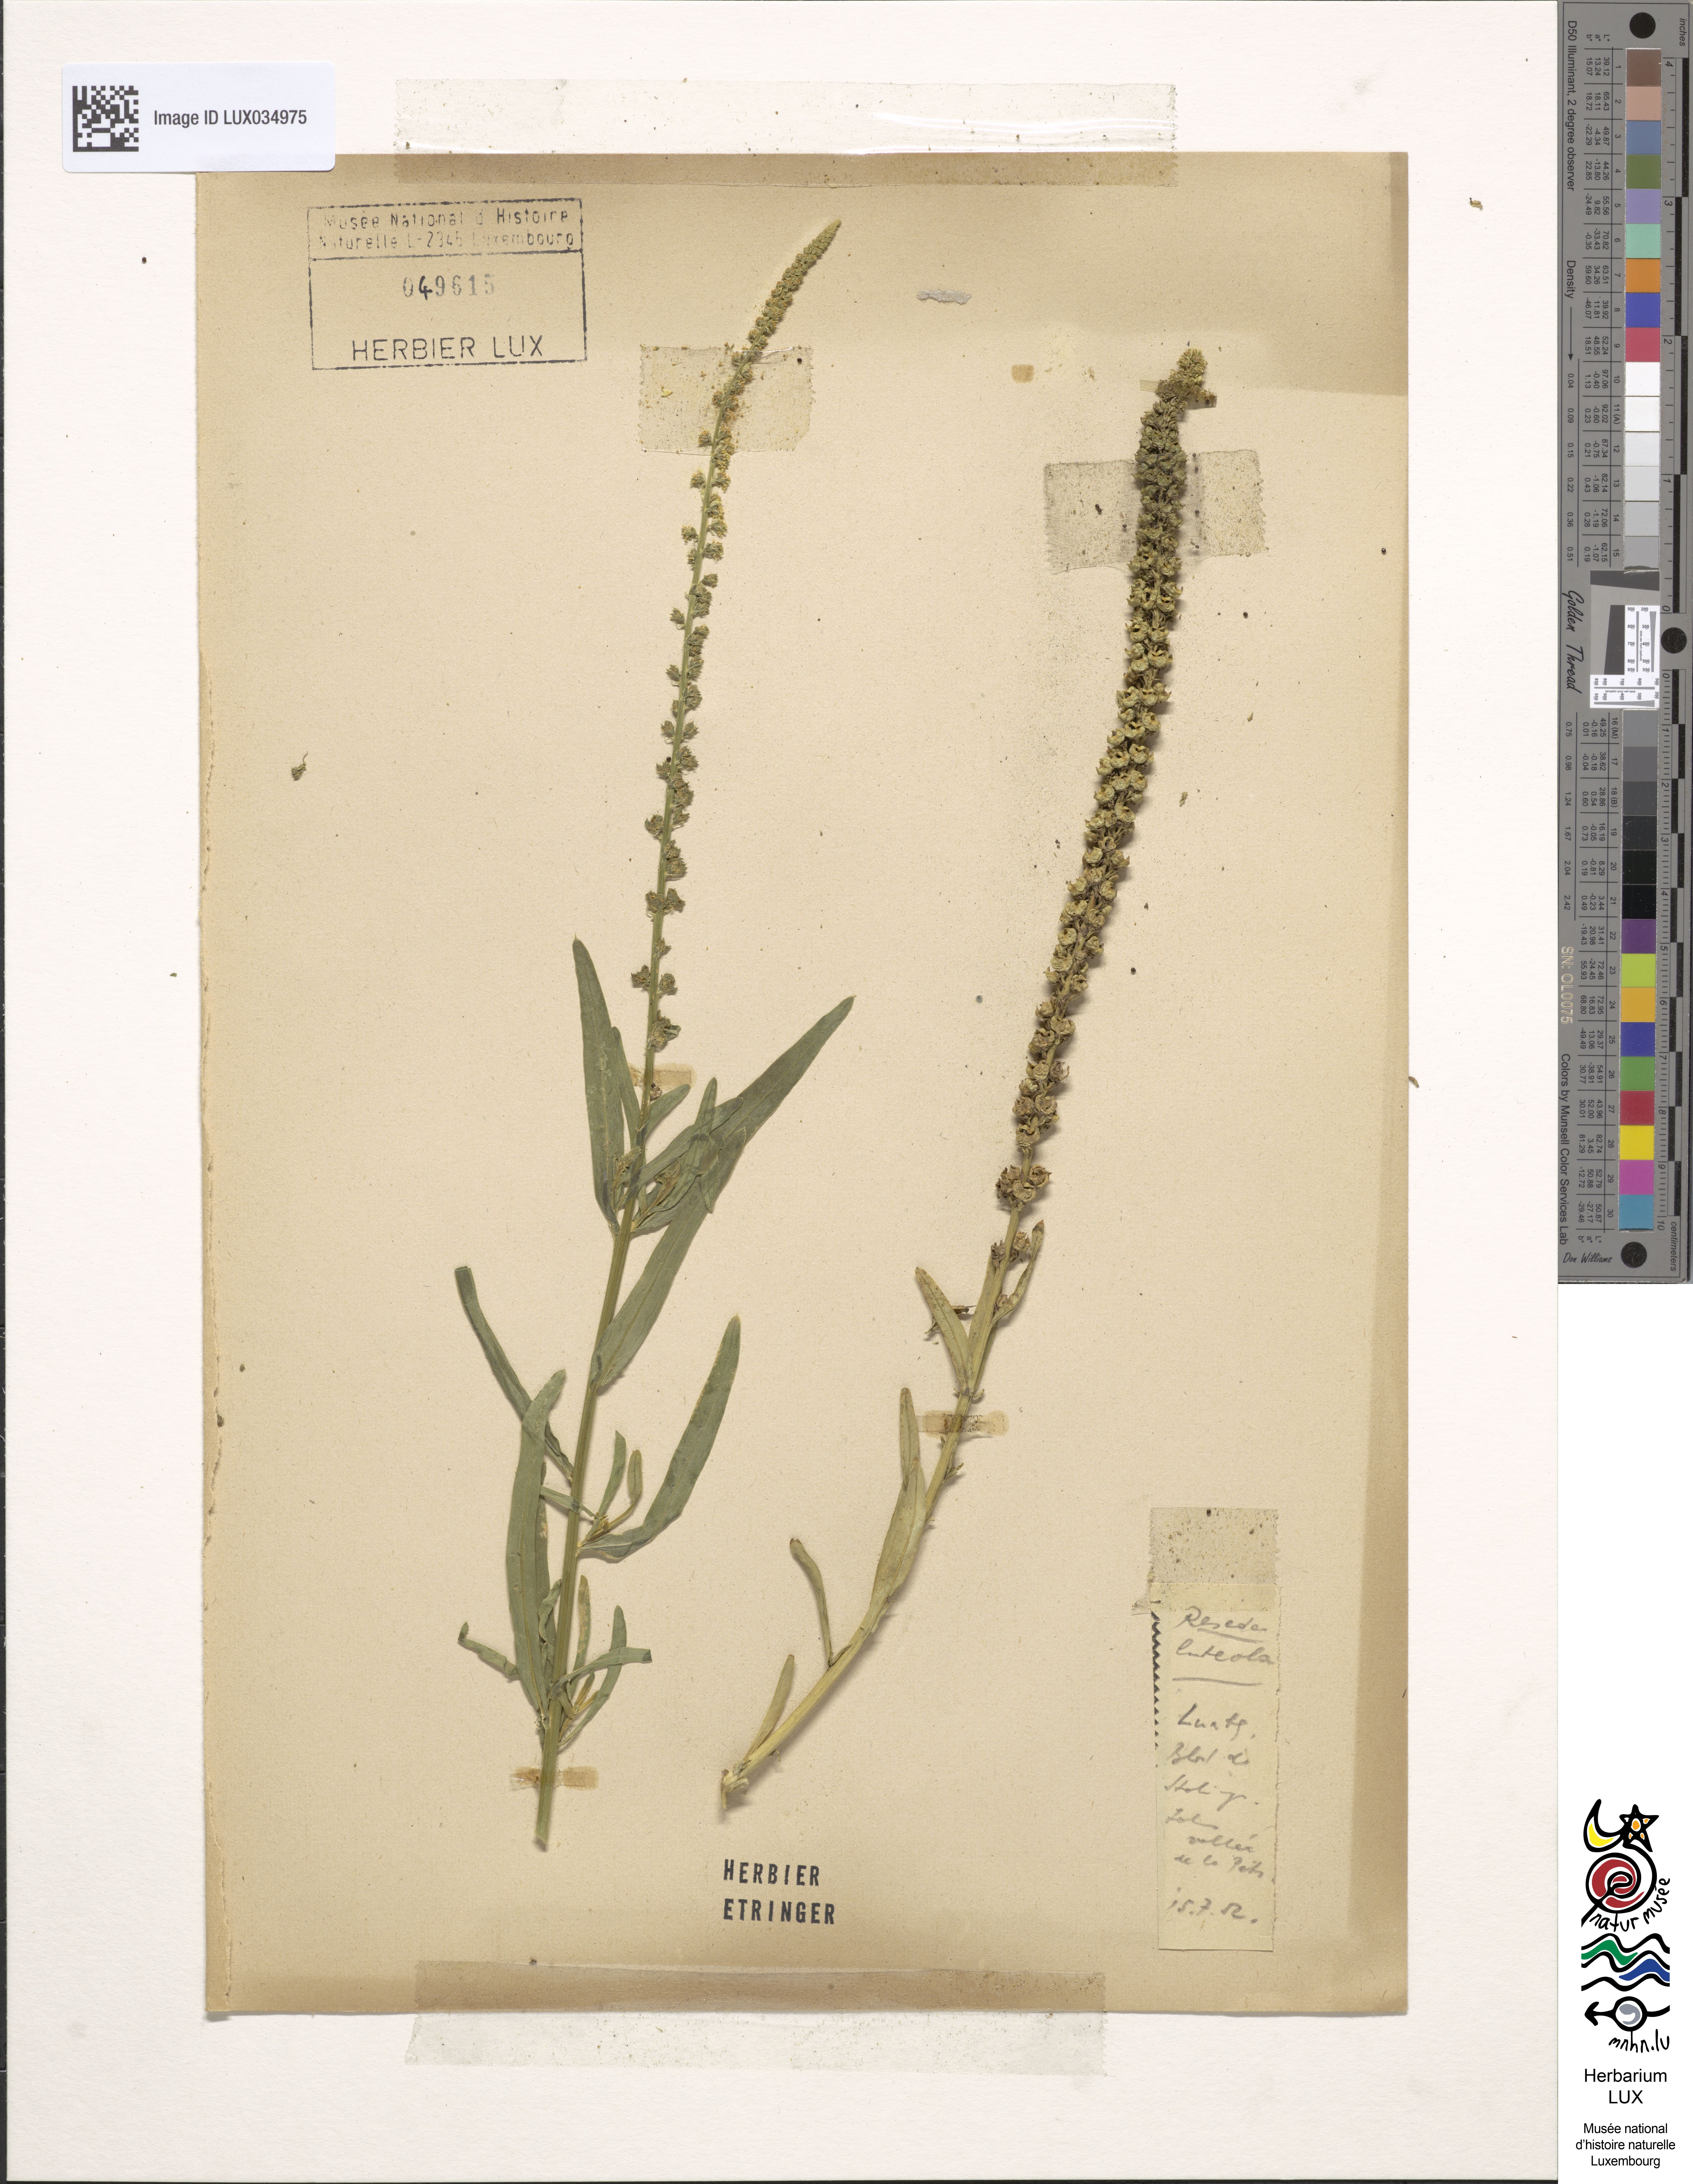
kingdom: Plantae
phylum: Tracheophyta
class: Magnoliopsida
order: Brassicales
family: Resedaceae
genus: Reseda
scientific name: Reseda lutea
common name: Wild mignonette
